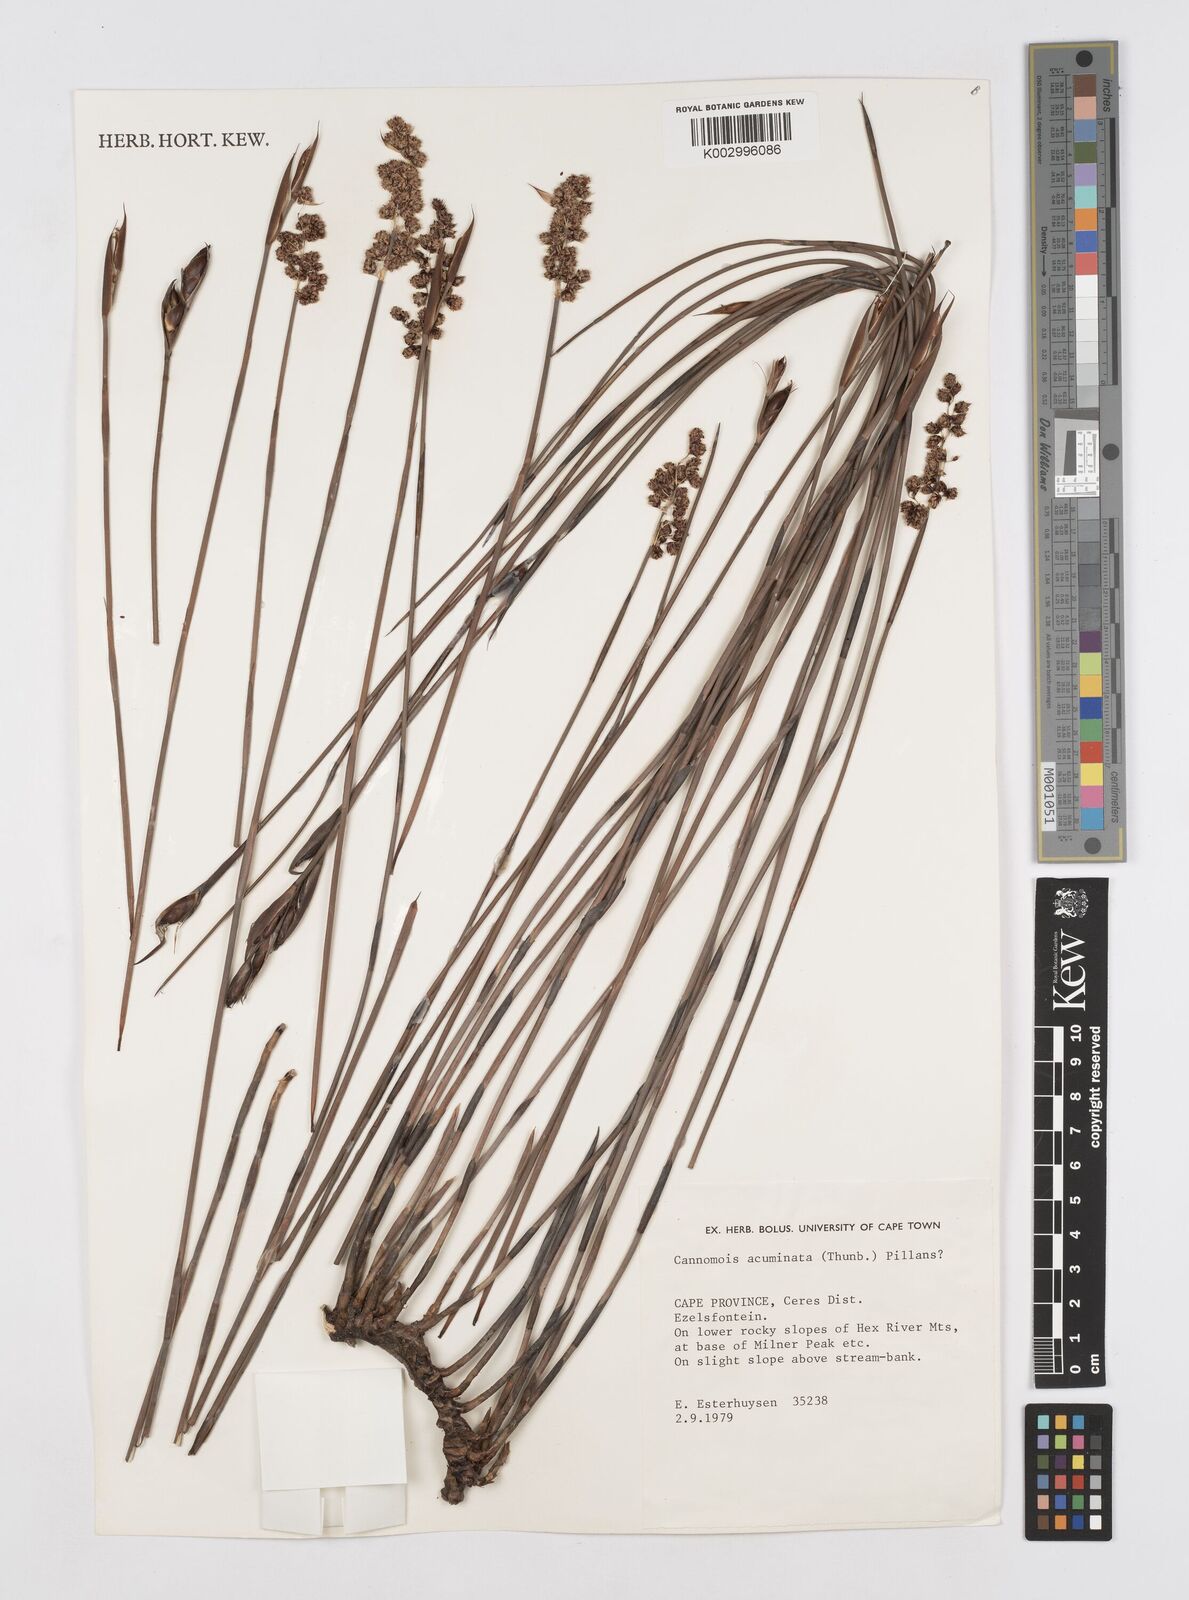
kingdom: Plantae
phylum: Tracheophyta
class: Liliopsida
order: Poales
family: Restionaceae
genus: Cannomois
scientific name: Cannomois parviflora
